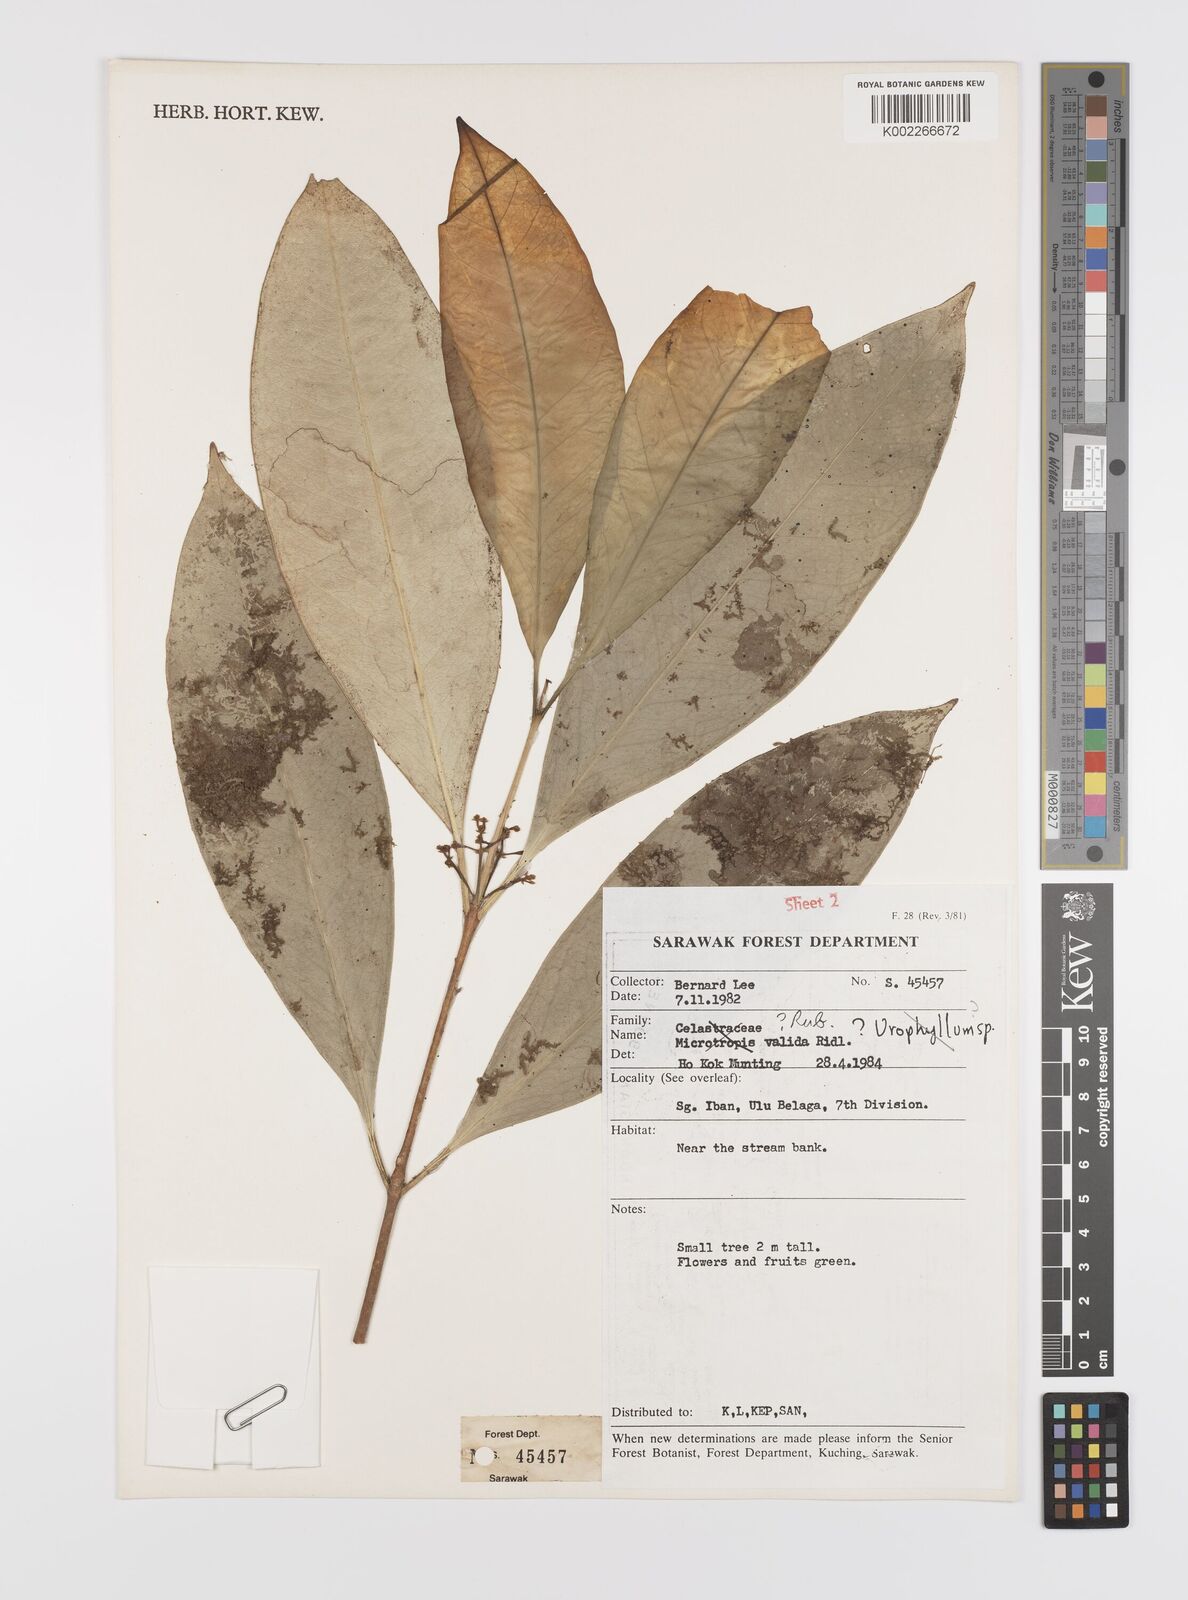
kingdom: Plantae
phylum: Tracheophyta
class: Magnoliopsida
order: Celastrales
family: Celastraceae
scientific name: Celastraceae
